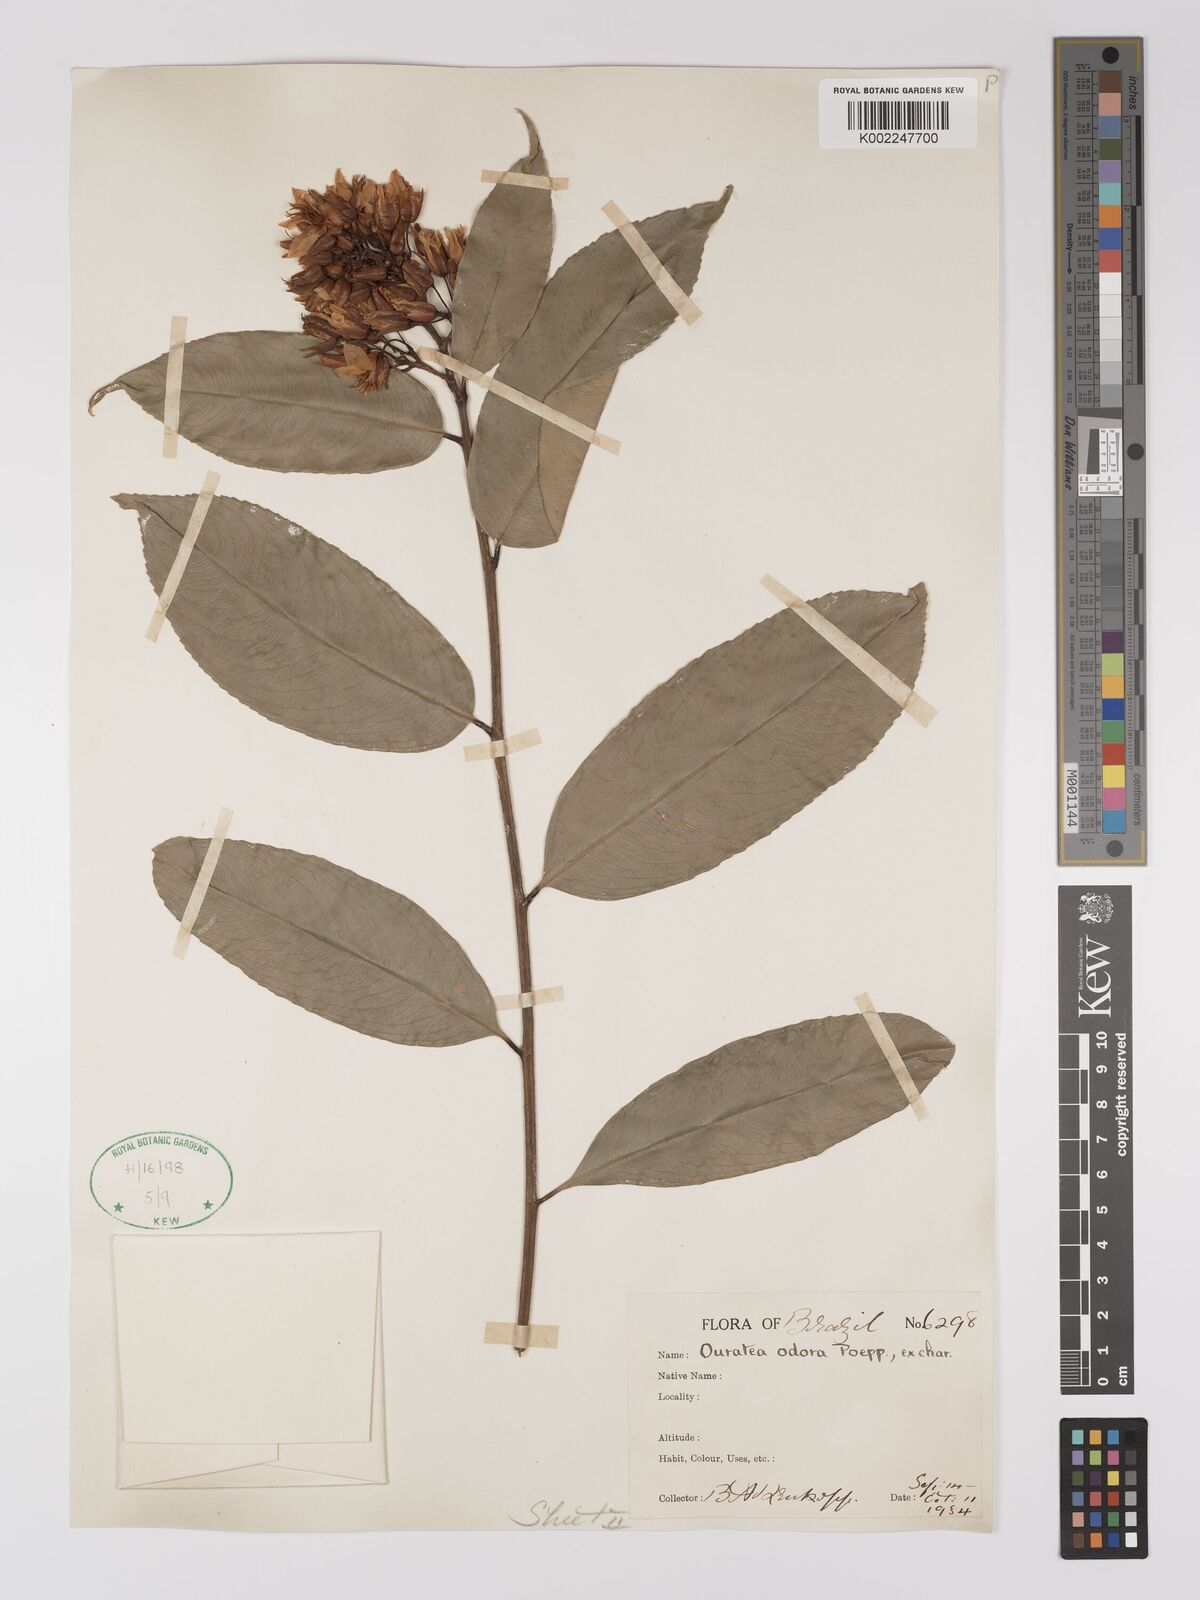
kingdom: Plantae
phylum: Tracheophyta
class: Magnoliopsida
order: Malpighiales
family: Ochnaceae
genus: Ouratea
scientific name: Ouratea superba
